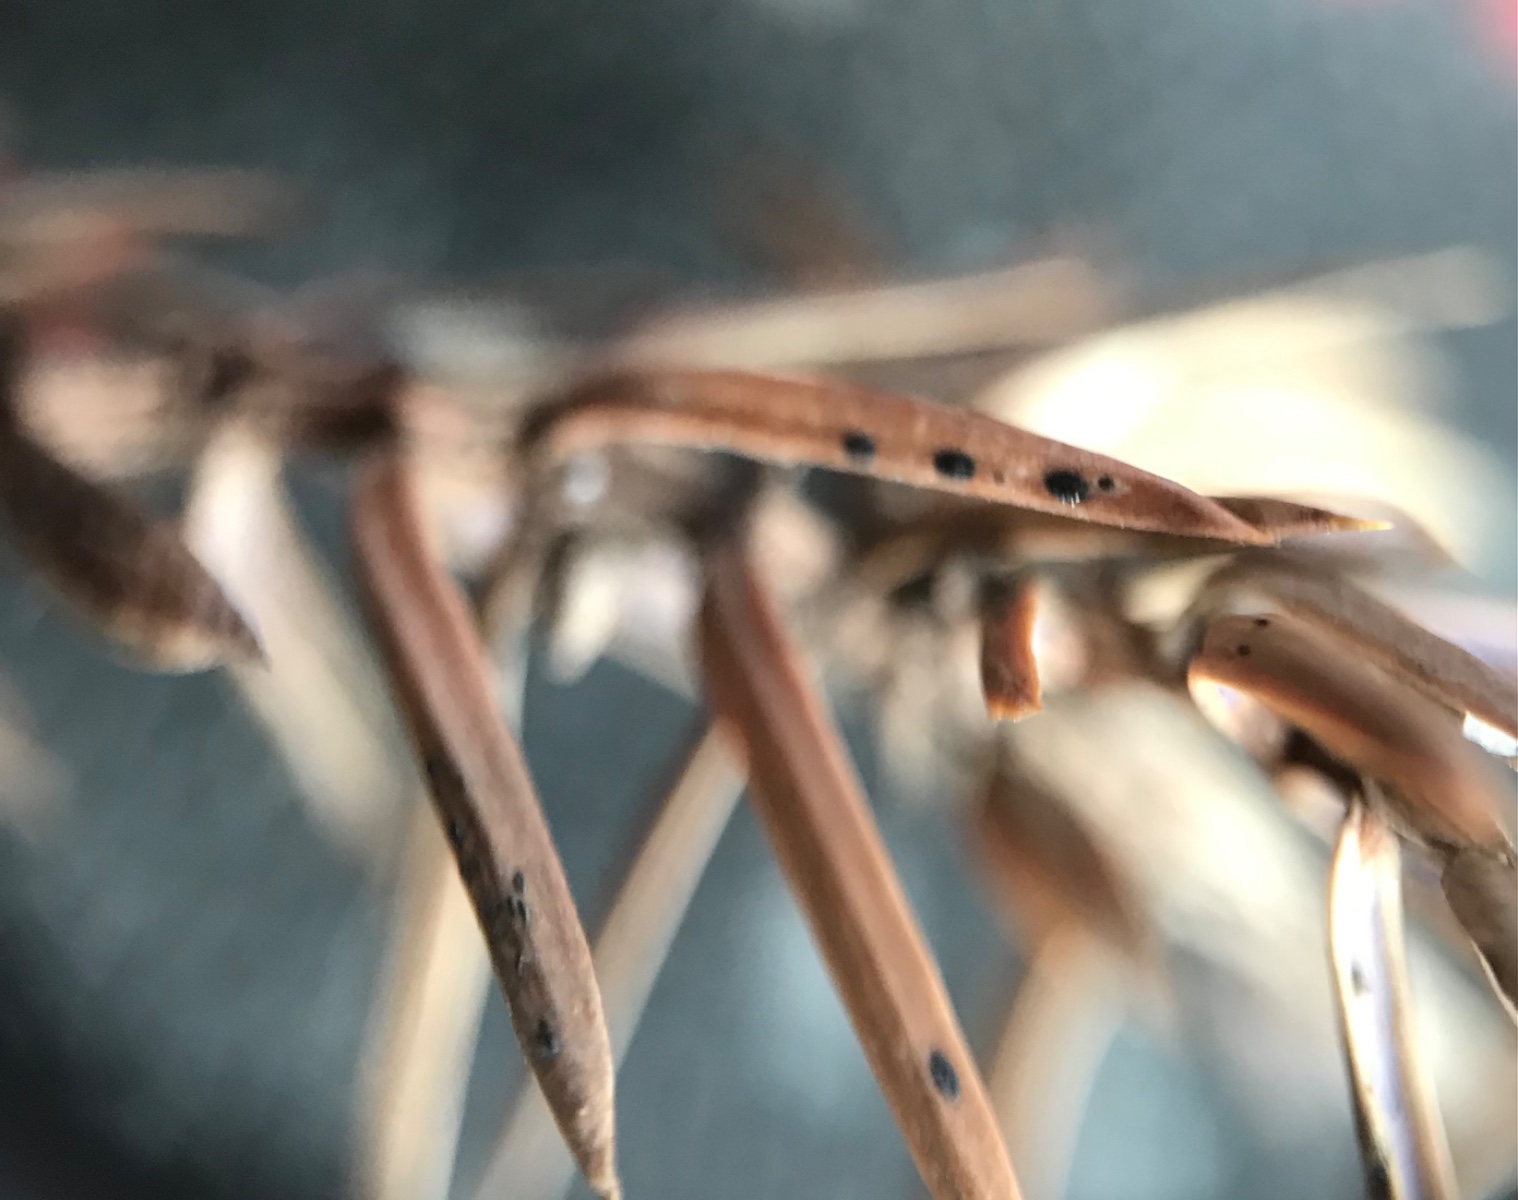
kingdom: Fungi
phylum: Ascomycota
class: Leotiomycetes
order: Rhytismatales
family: Rhytismataceae
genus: Lophodermium
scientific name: Lophodermium juniperinum
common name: ene-fureplet
